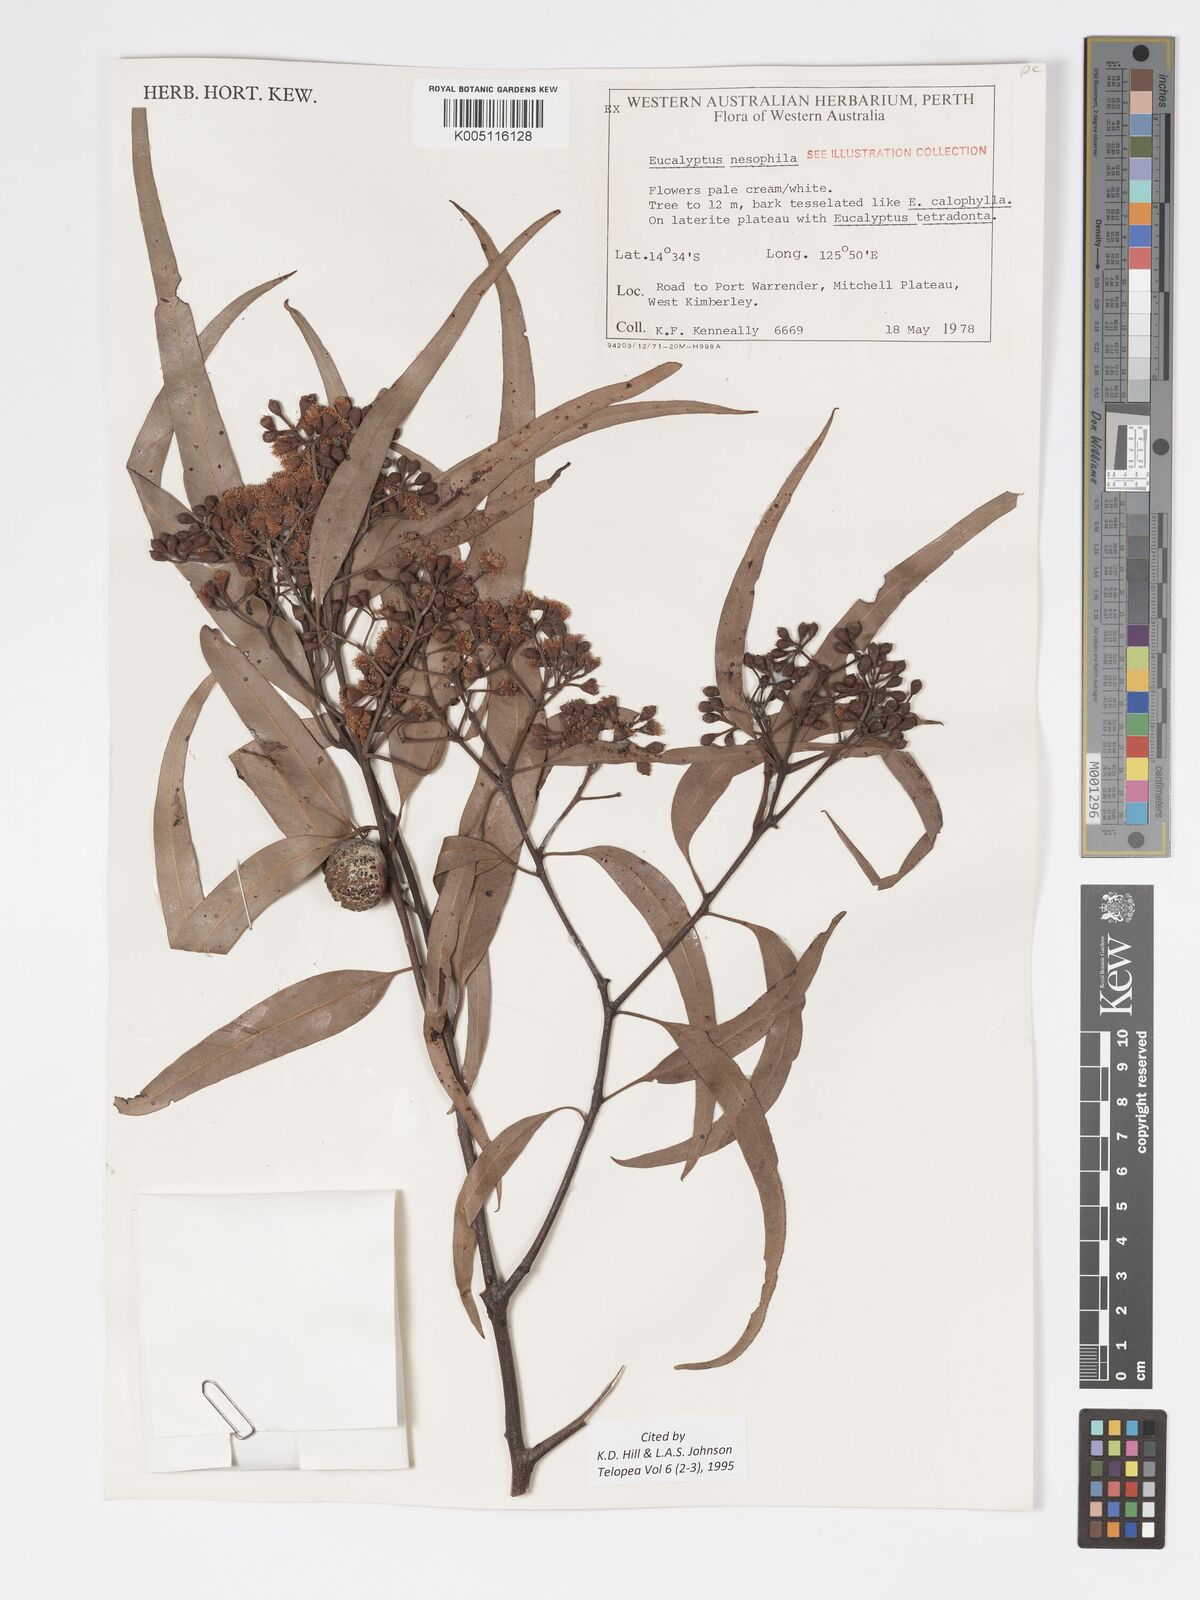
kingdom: Plantae
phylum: Tracheophyta
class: Magnoliopsida
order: Myrtales
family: Myrtaceae
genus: Corymbia
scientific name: Corymbia nesophila
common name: Melville-island-bloodwood
